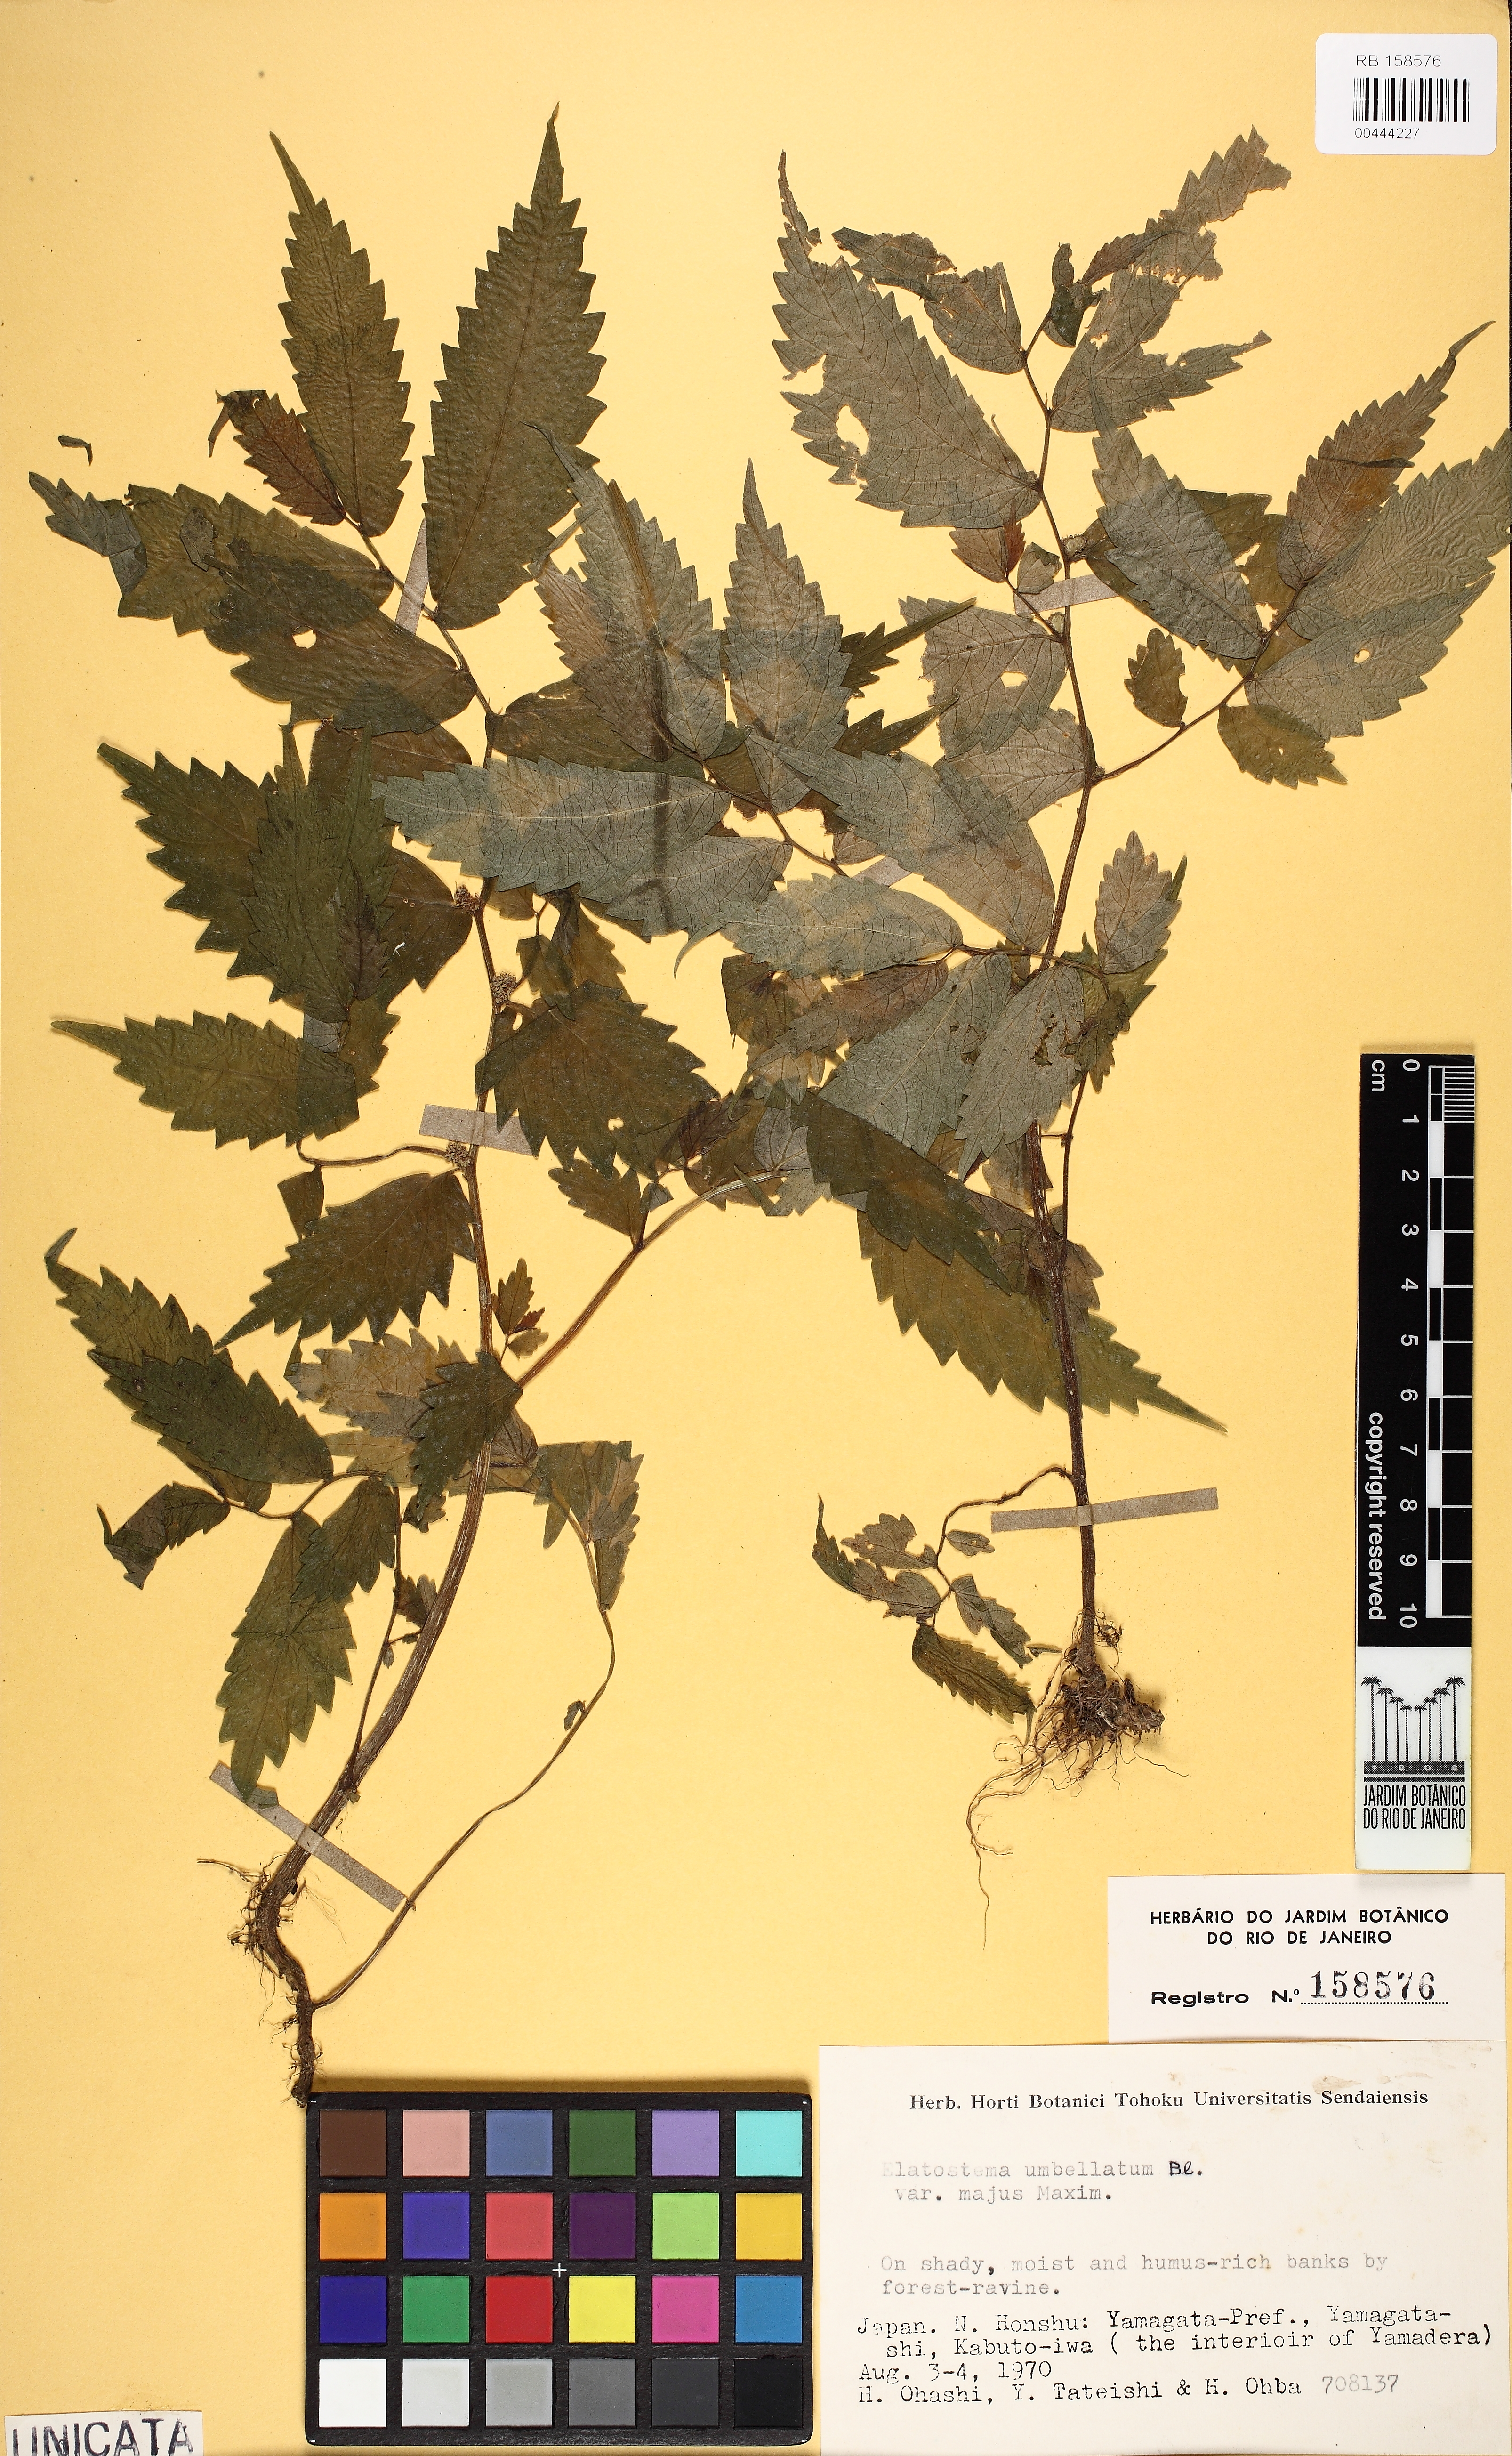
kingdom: Plantae
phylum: Tracheophyta
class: Magnoliopsida
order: Rosales
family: Urticaceae
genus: Elatostema
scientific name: Elatostema involucratum
